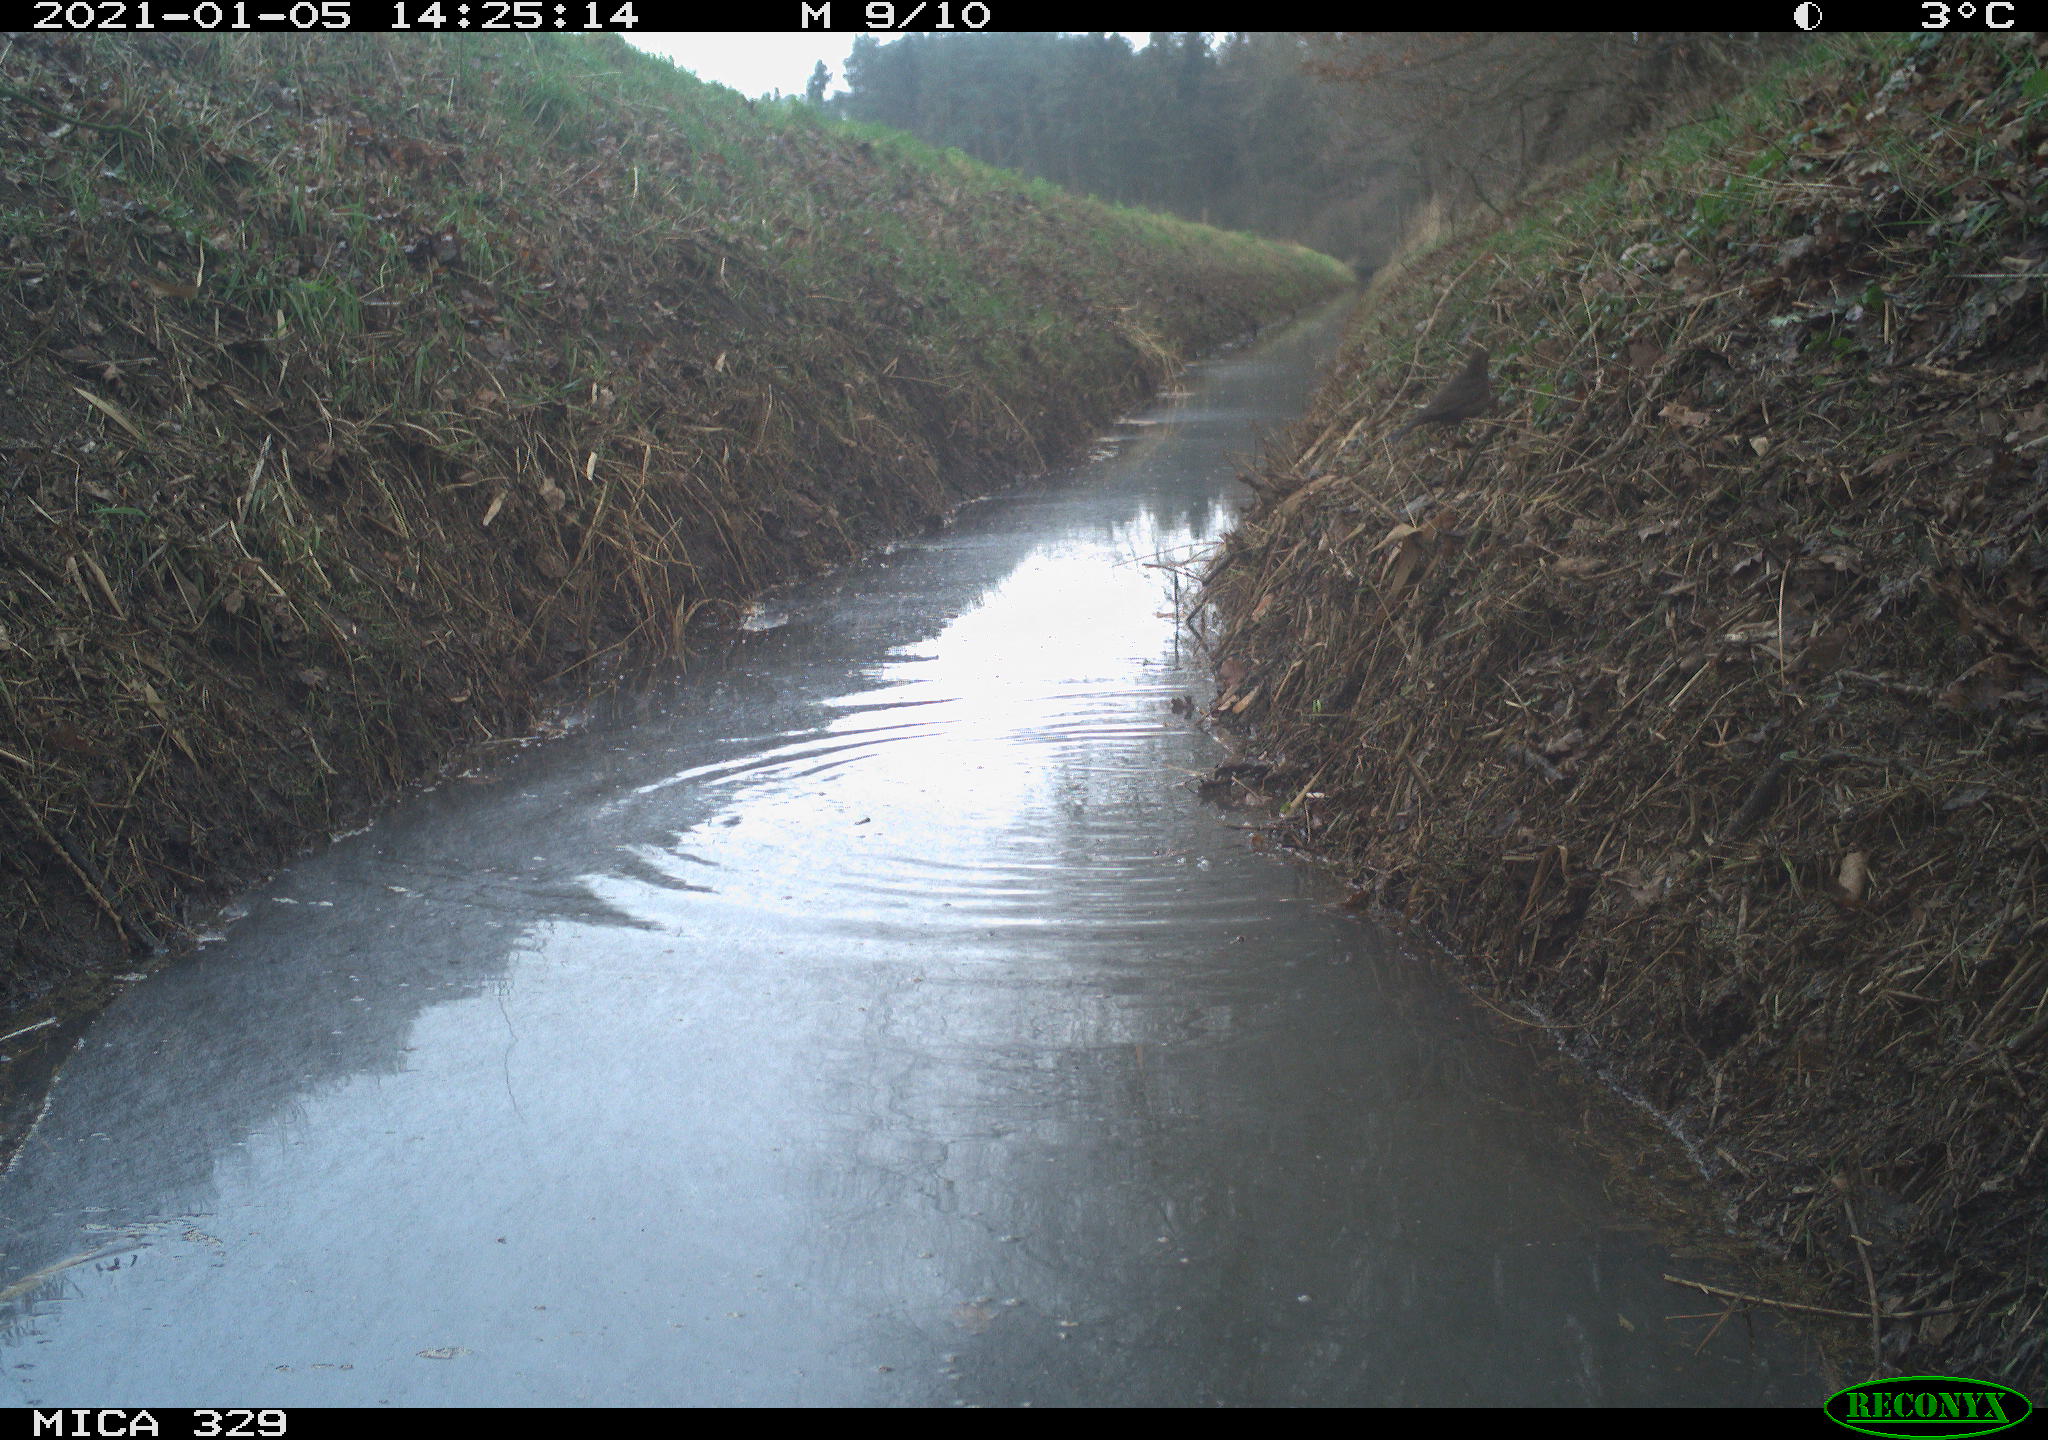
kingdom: Animalia
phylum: Chordata
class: Aves
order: Passeriformes
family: Turdidae
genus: Turdus
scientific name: Turdus philomelos
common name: Song thrush
